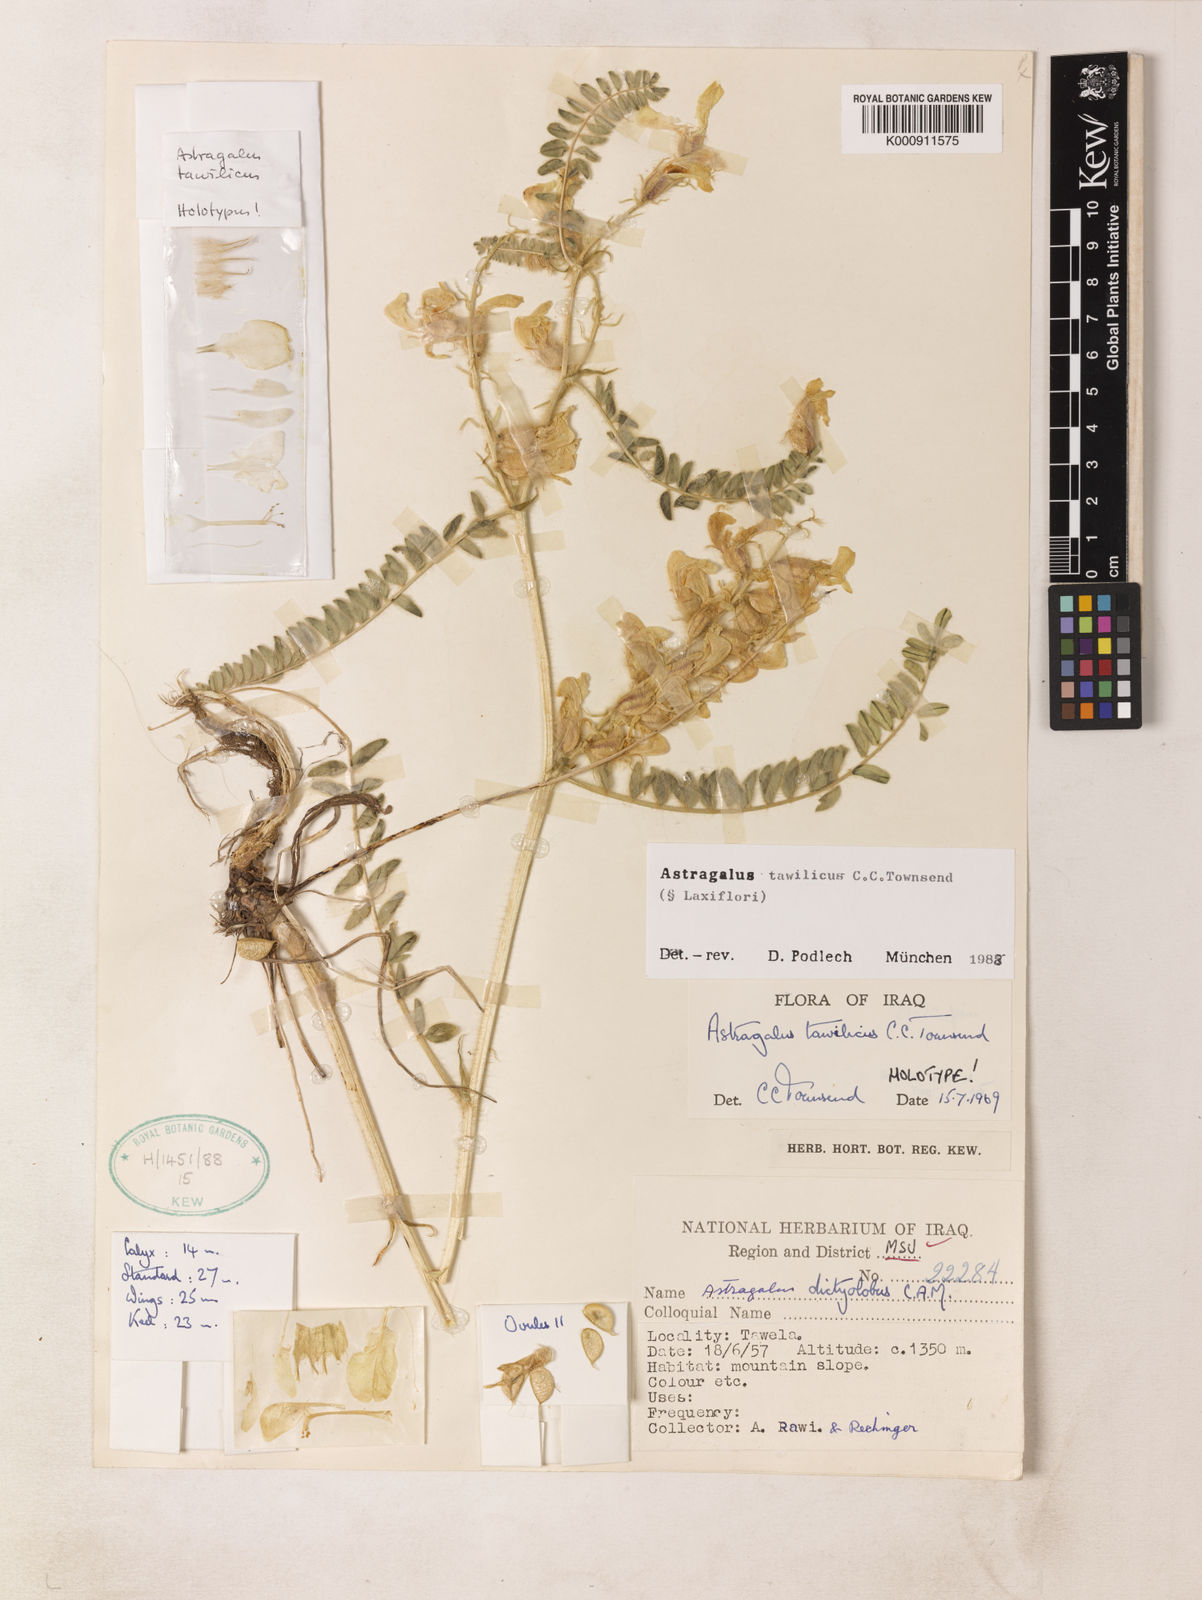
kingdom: Plantae
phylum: Tracheophyta
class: Magnoliopsida
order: Fabales
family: Fabaceae
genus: Astragalus
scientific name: Astragalus tawilicus
